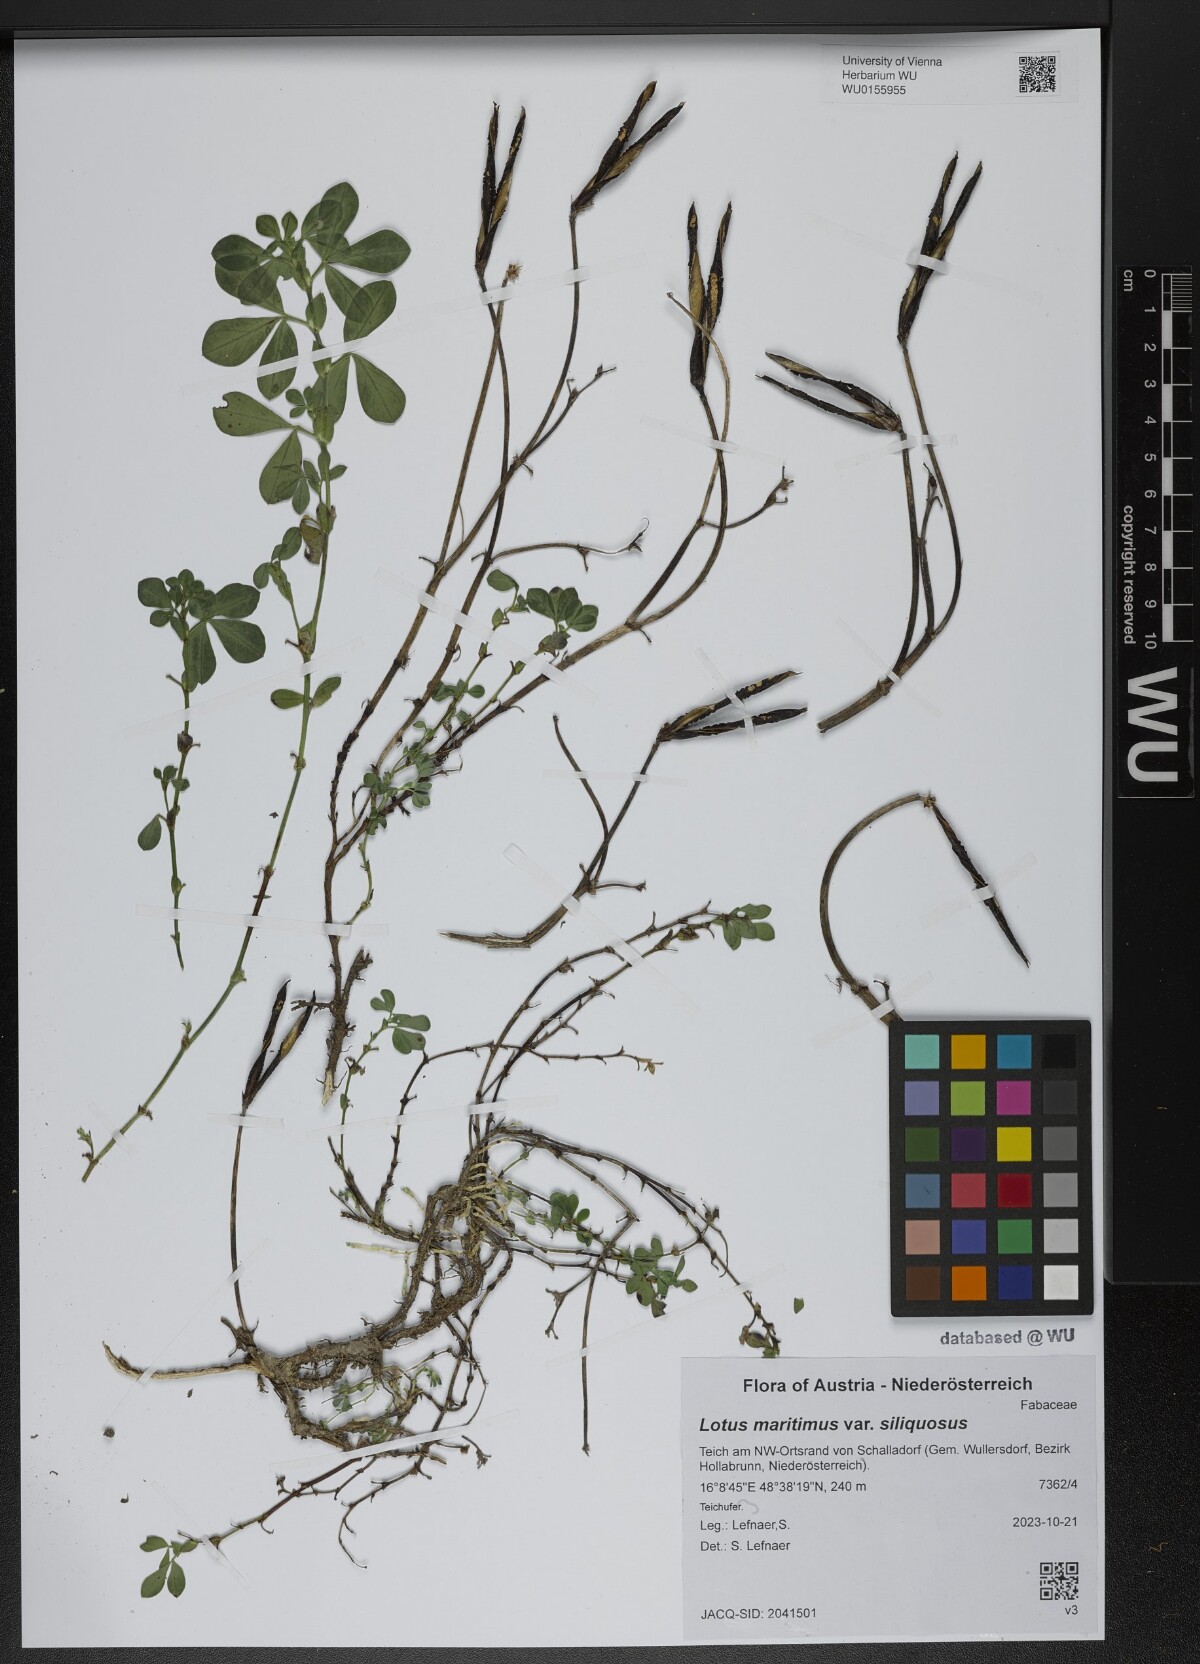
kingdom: Plantae
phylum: Tracheophyta
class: Magnoliopsida
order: Fabales
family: Fabaceae
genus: Lathyrus
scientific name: Lathyrus inconspicuus
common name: Inconspicuous pea
